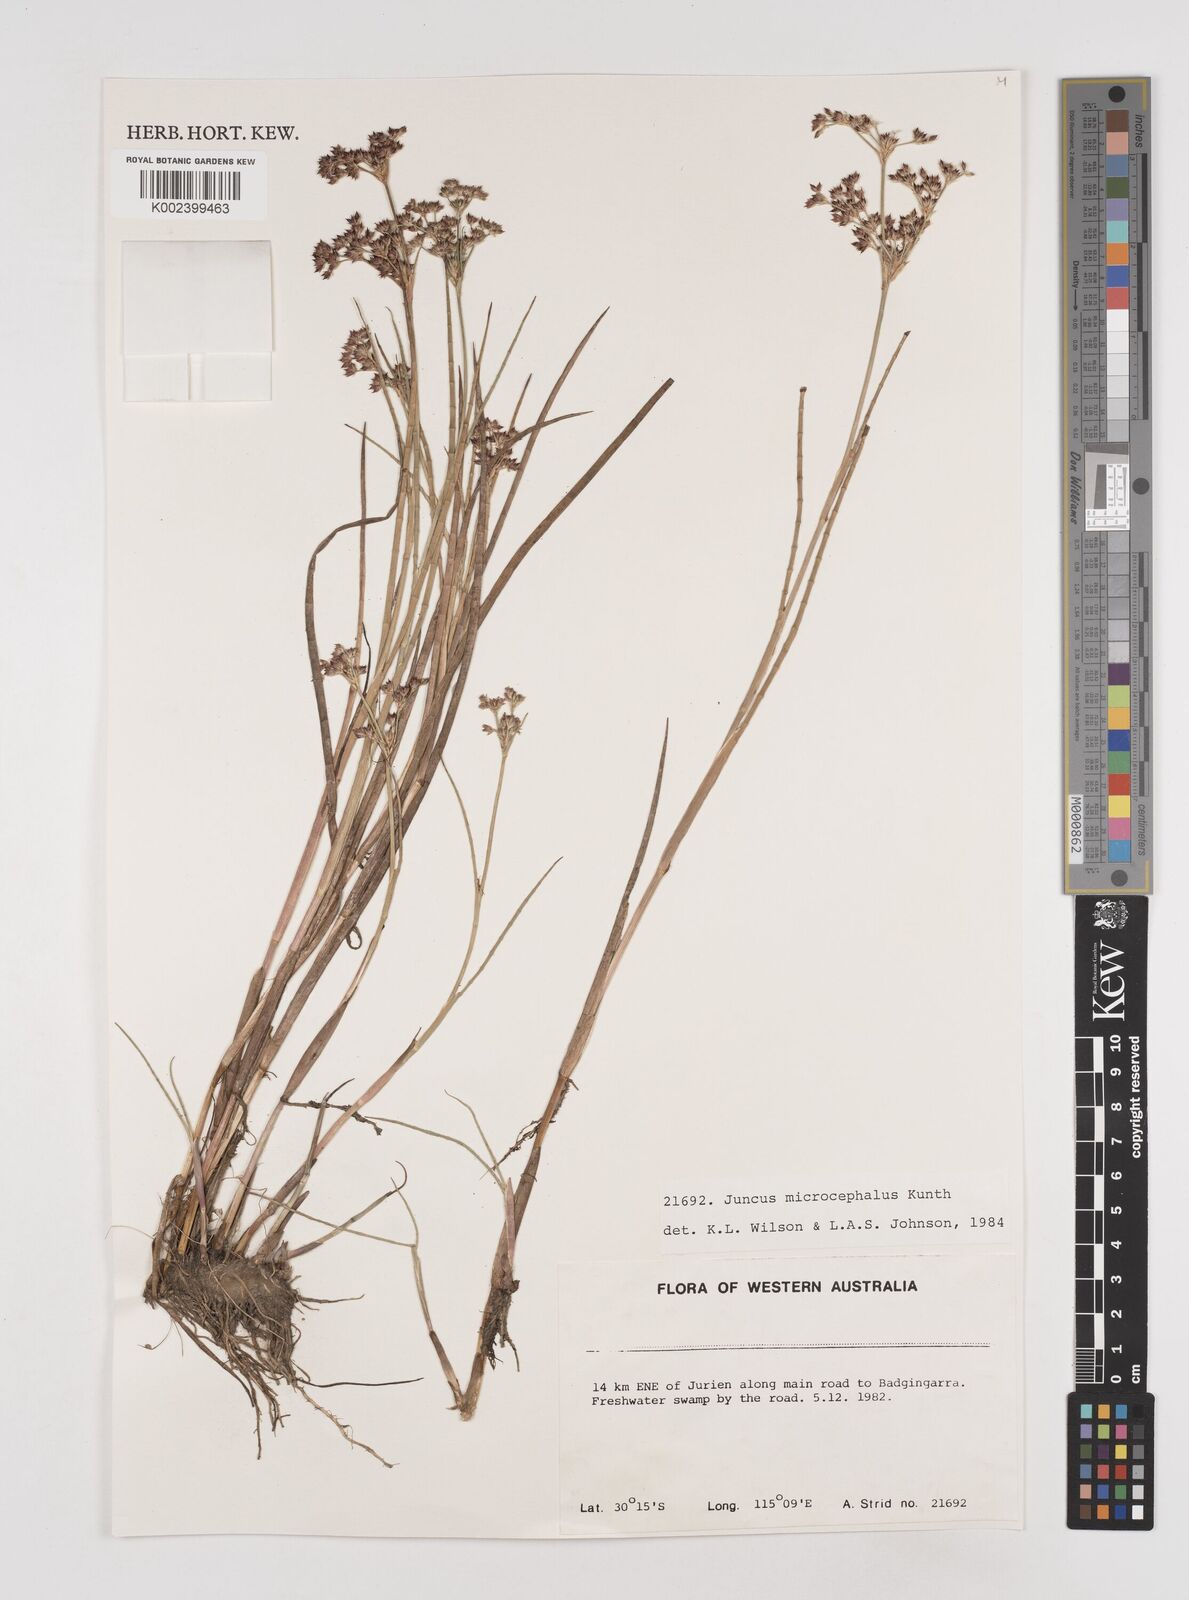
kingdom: Plantae
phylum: Tracheophyta
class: Liliopsida
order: Poales
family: Juncaceae
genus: Juncus
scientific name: Juncus microcephalus
